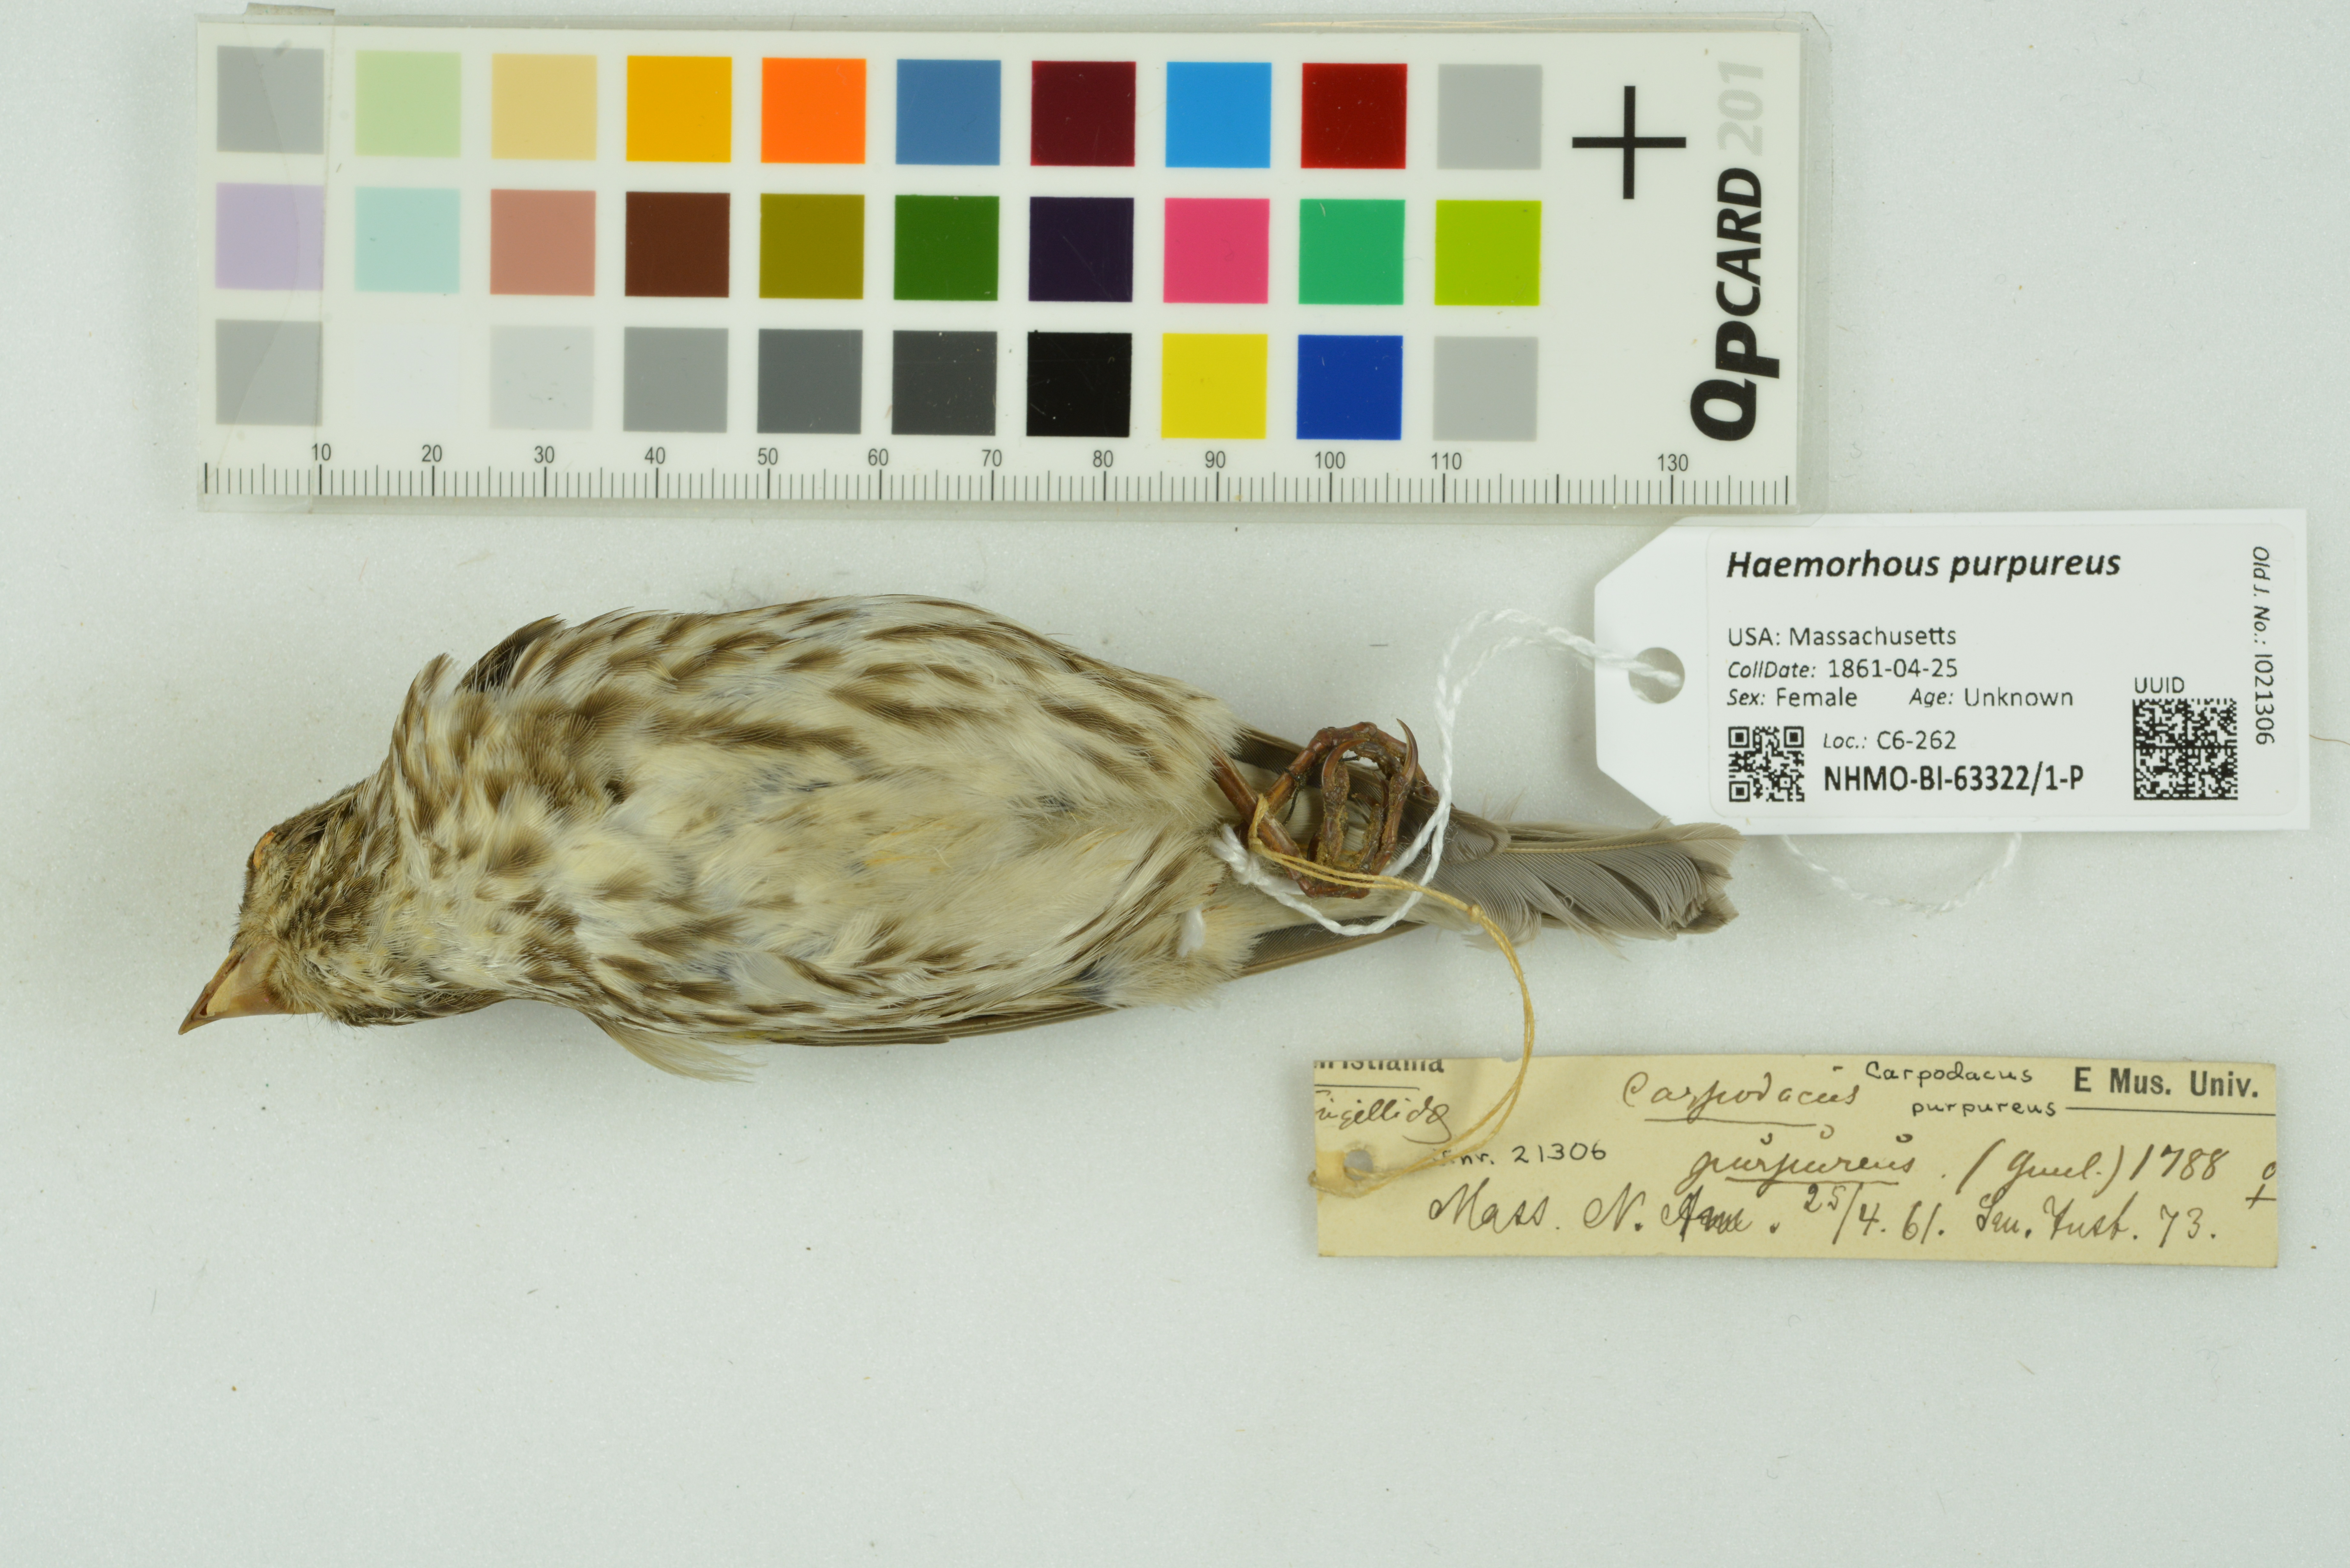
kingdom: Animalia
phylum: Chordata
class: Aves
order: Passeriformes
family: Fringillidae
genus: Haemorhous
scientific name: Haemorhous purpureus
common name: Purple finch
